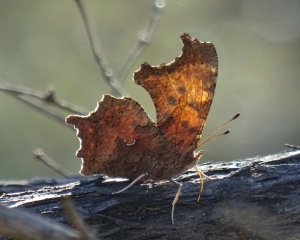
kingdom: Animalia
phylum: Arthropoda
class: Insecta
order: Lepidoptera
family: Nymphalidae
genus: Polygonia
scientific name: Polygonia comma
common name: Eastern Comma
